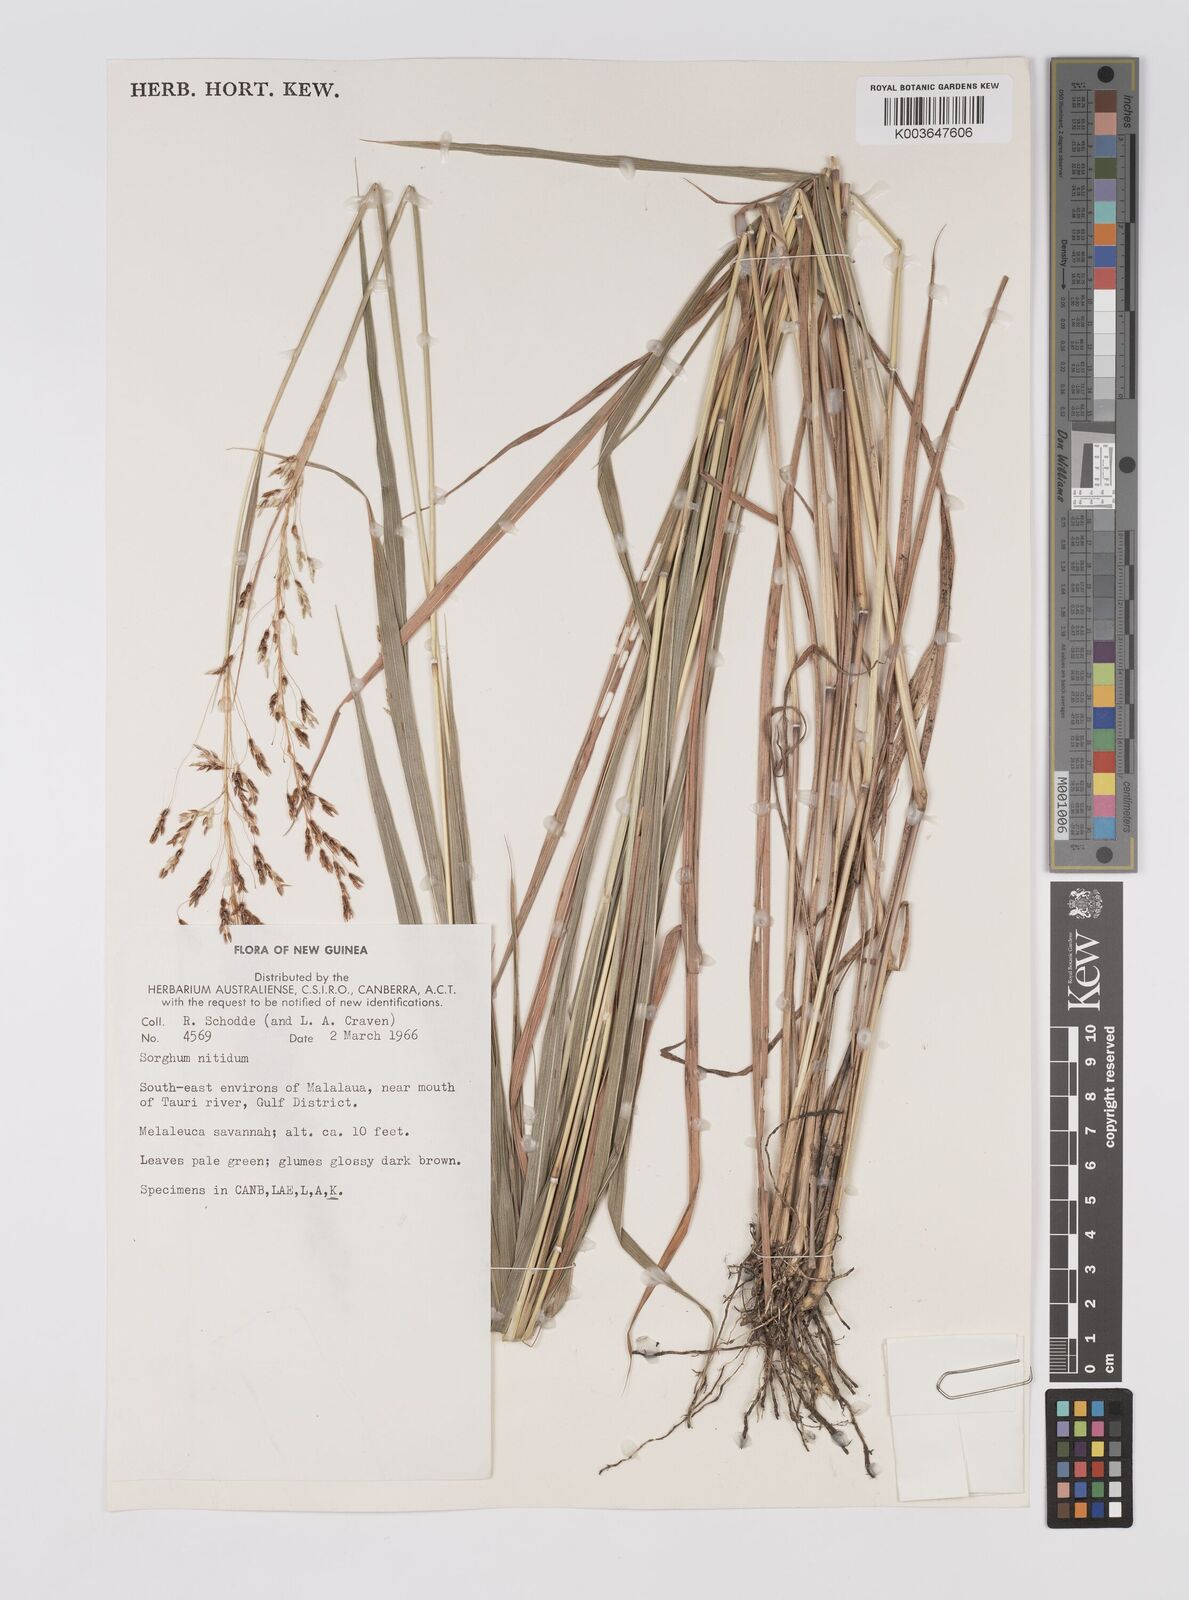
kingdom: Plantae
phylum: Tracheophyta
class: Liliopsida
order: Poales
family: Poaceae
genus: Sorghum
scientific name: Sorghum nitidum
